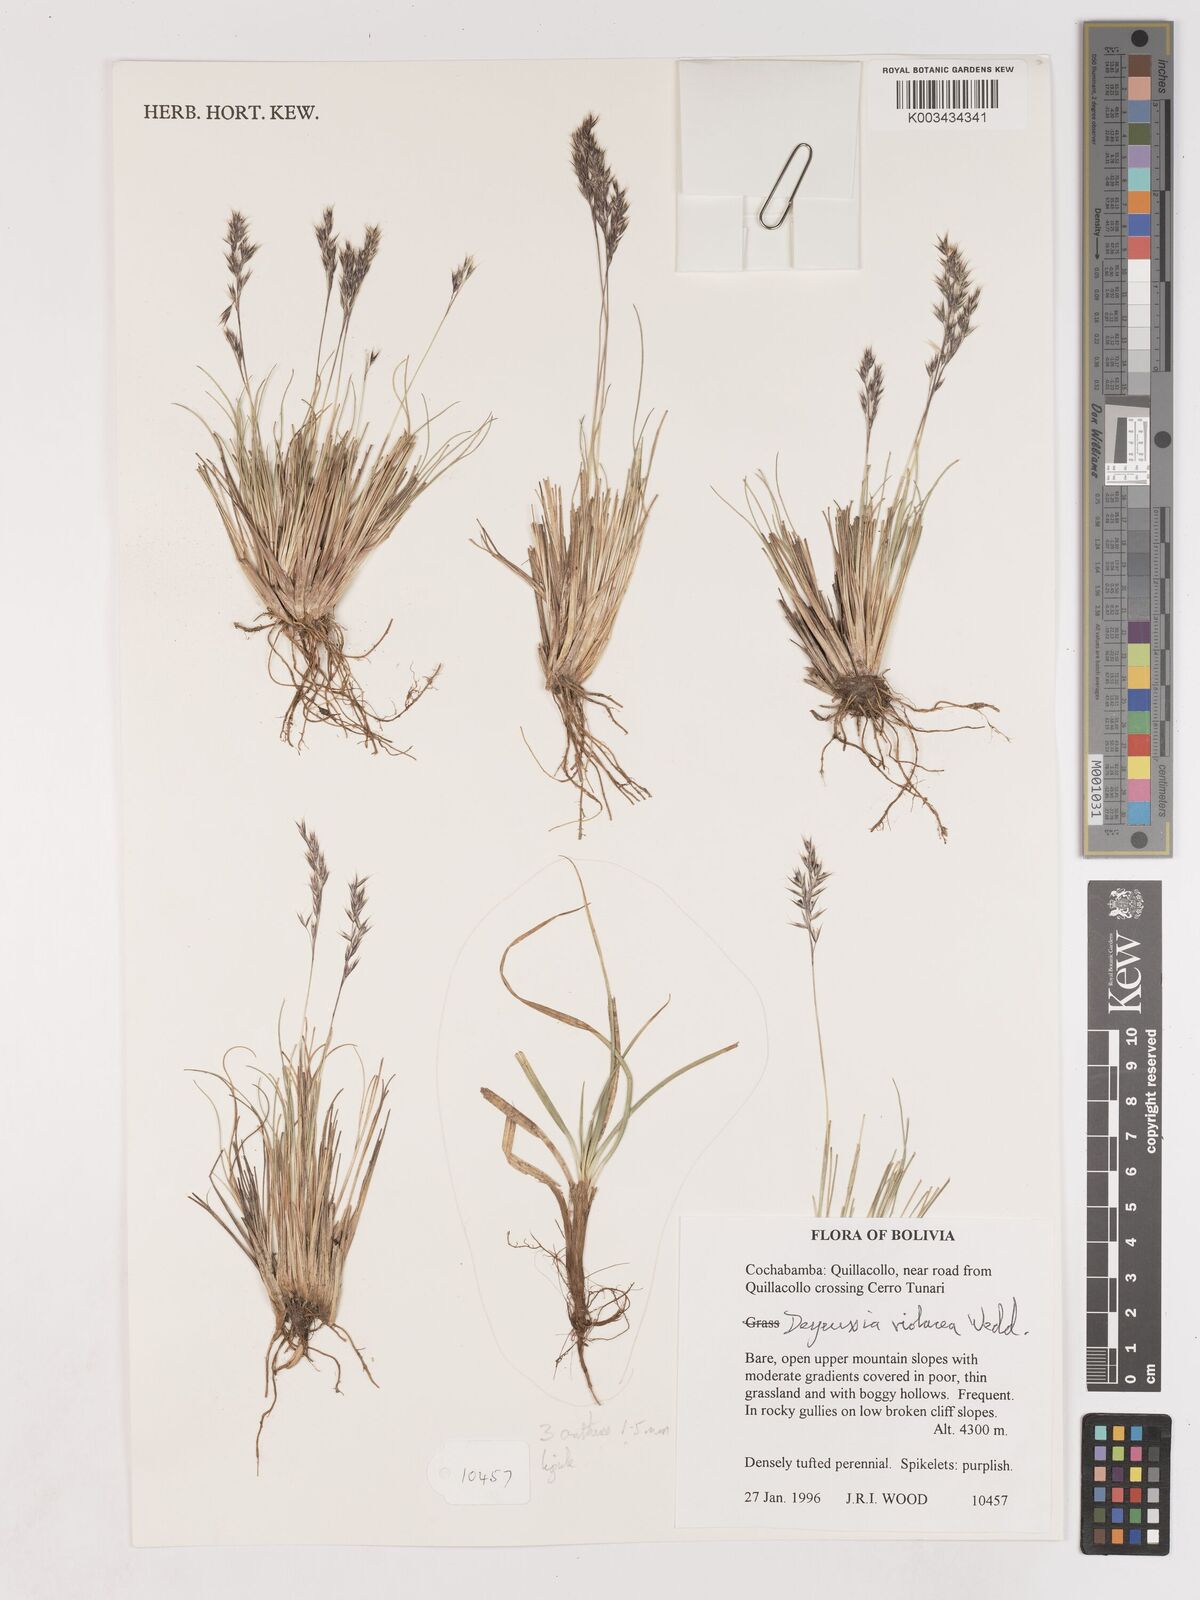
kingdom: Plantae
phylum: Tracheophyta
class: Liliopsida
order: Poales
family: Poaceae
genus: Cinnagrostis
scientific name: Cinnagrostis violacea
